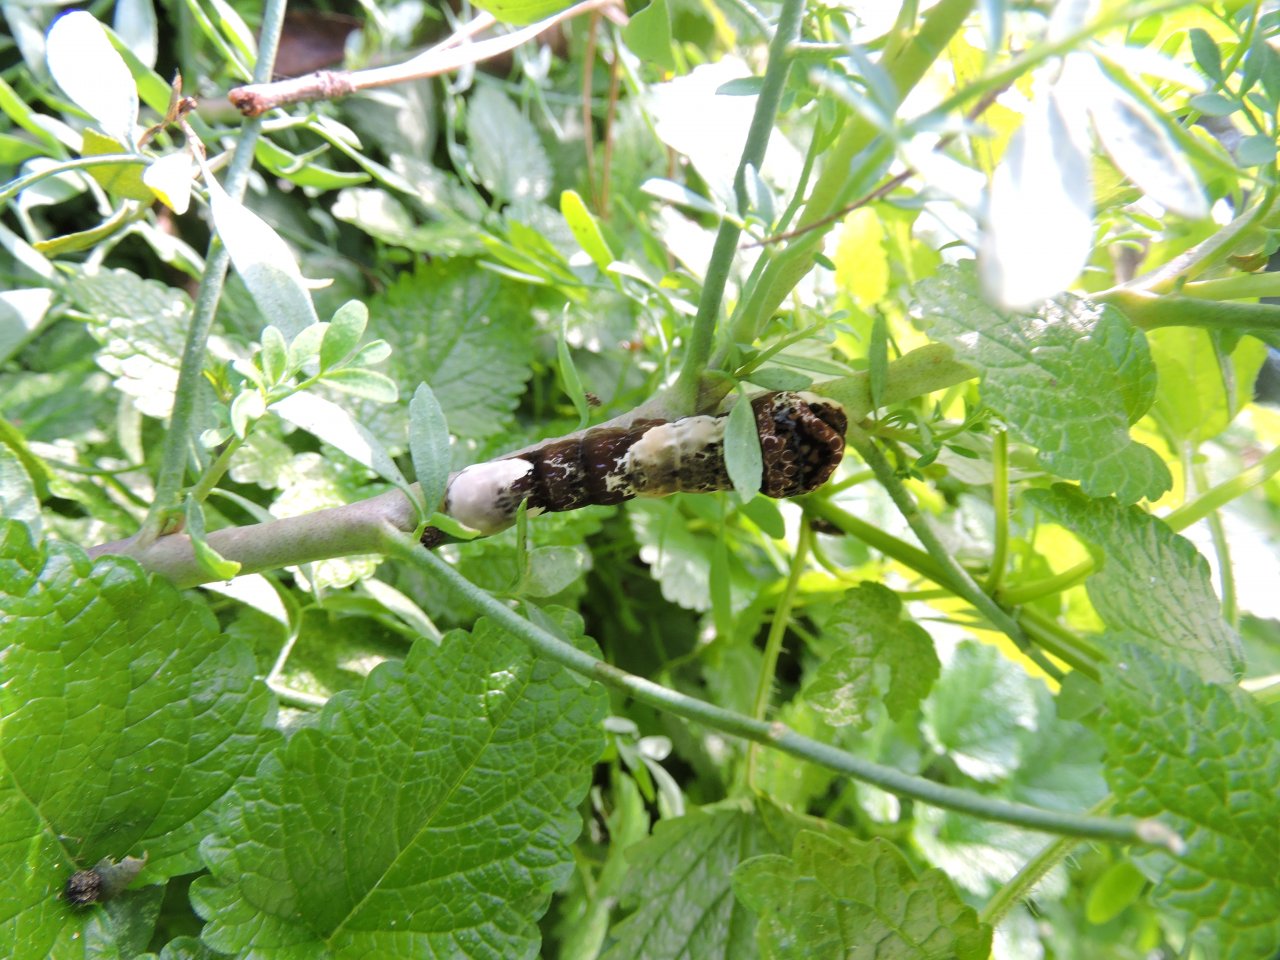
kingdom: Animalia
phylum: Arthropoda
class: Insecta
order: Lepidoptera
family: Papilionidae
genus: Papilio
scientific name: Papilio cresphontes
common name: Eastern Giant Swallowtail
